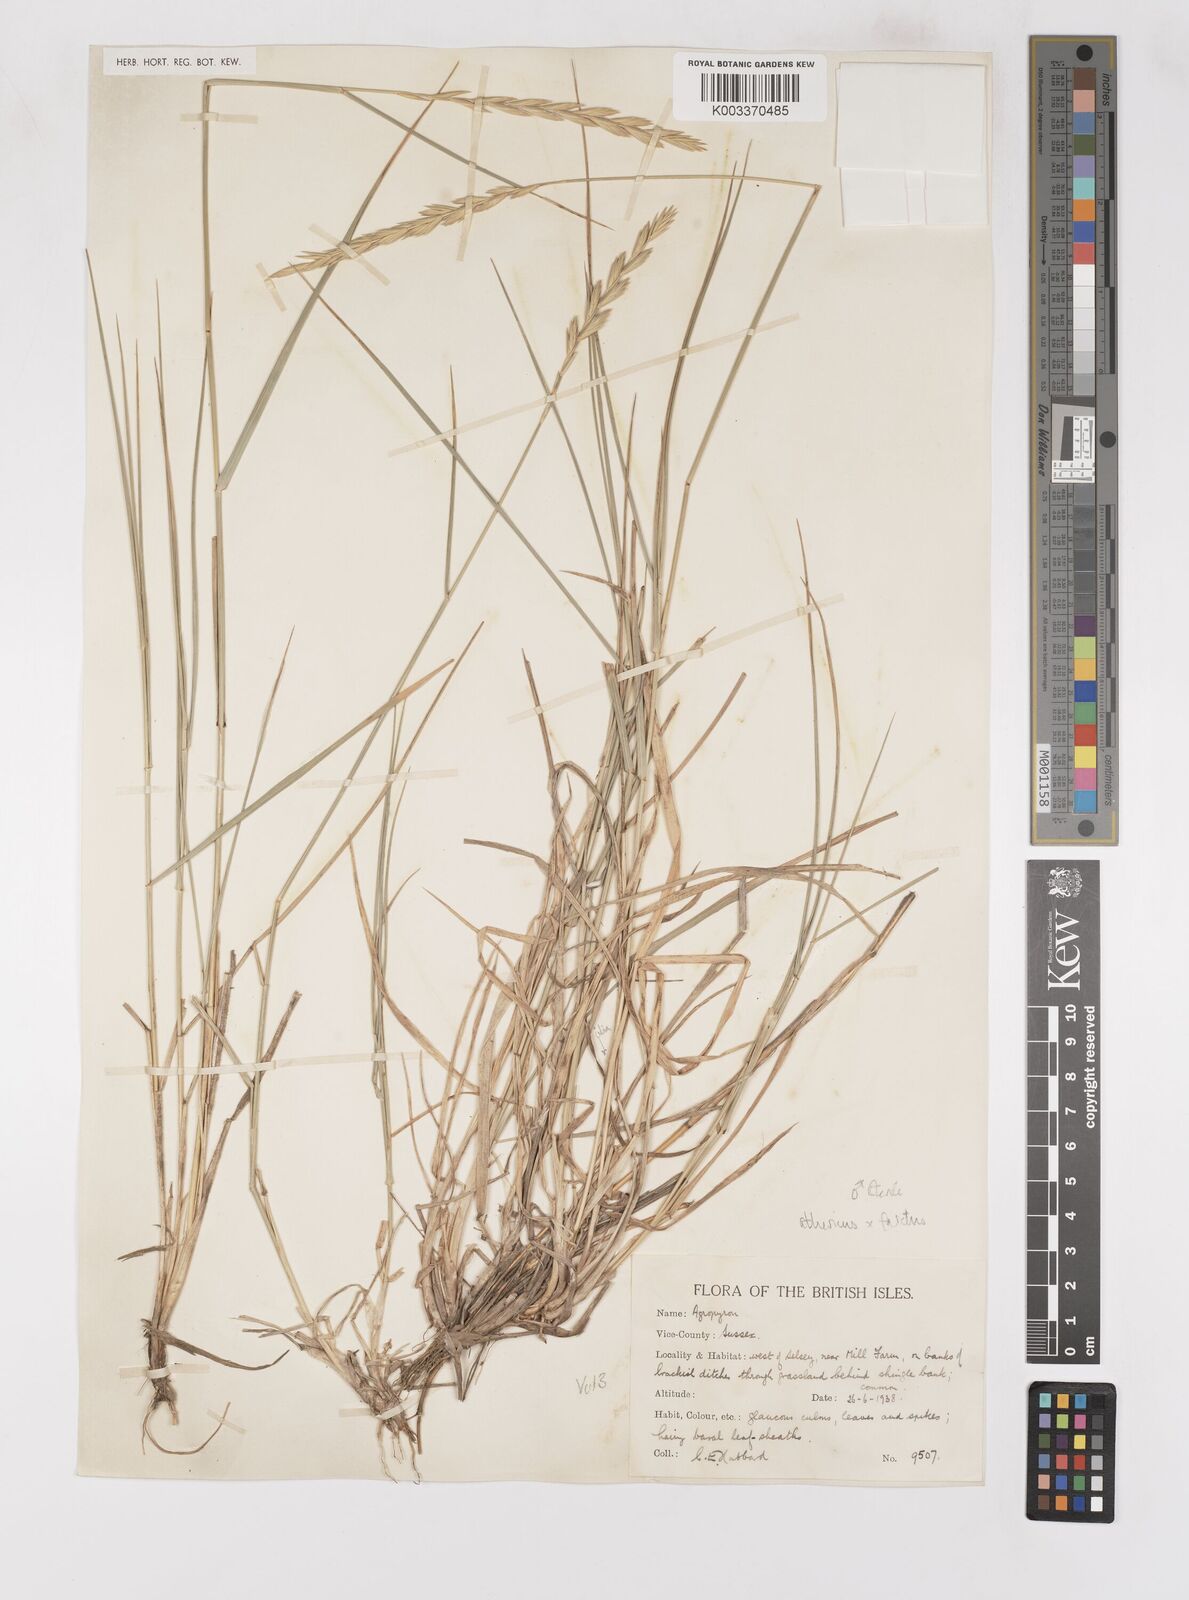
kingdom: Plantae
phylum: Tracheophyta
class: Liliopsida
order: Poales
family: Poaceae
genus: Thinoelymus
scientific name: Thinoelymus obtusiusculus
